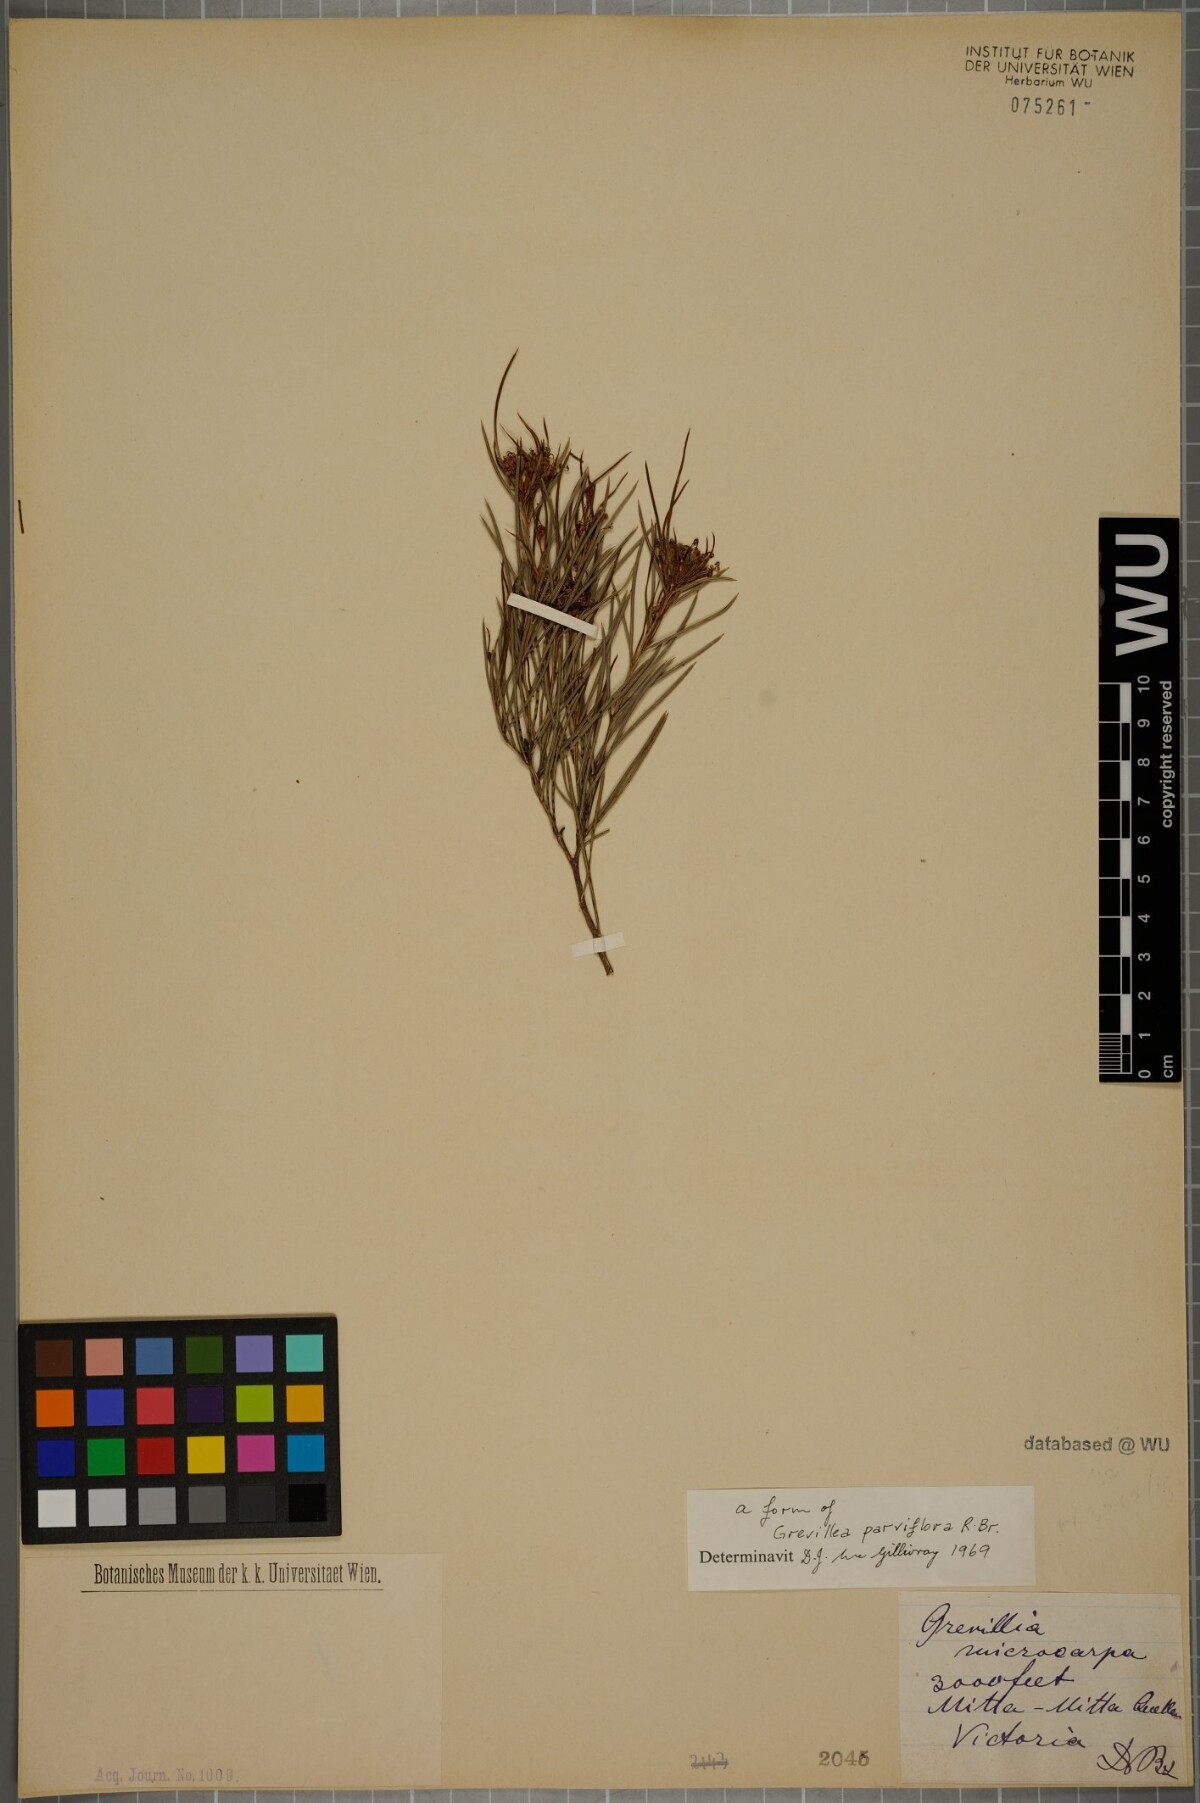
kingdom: Plantae
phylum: Tracheophyta
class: Magnoliopsida
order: Proteales
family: Proteaceae
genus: Grevillea
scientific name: Grevillea parviflora
